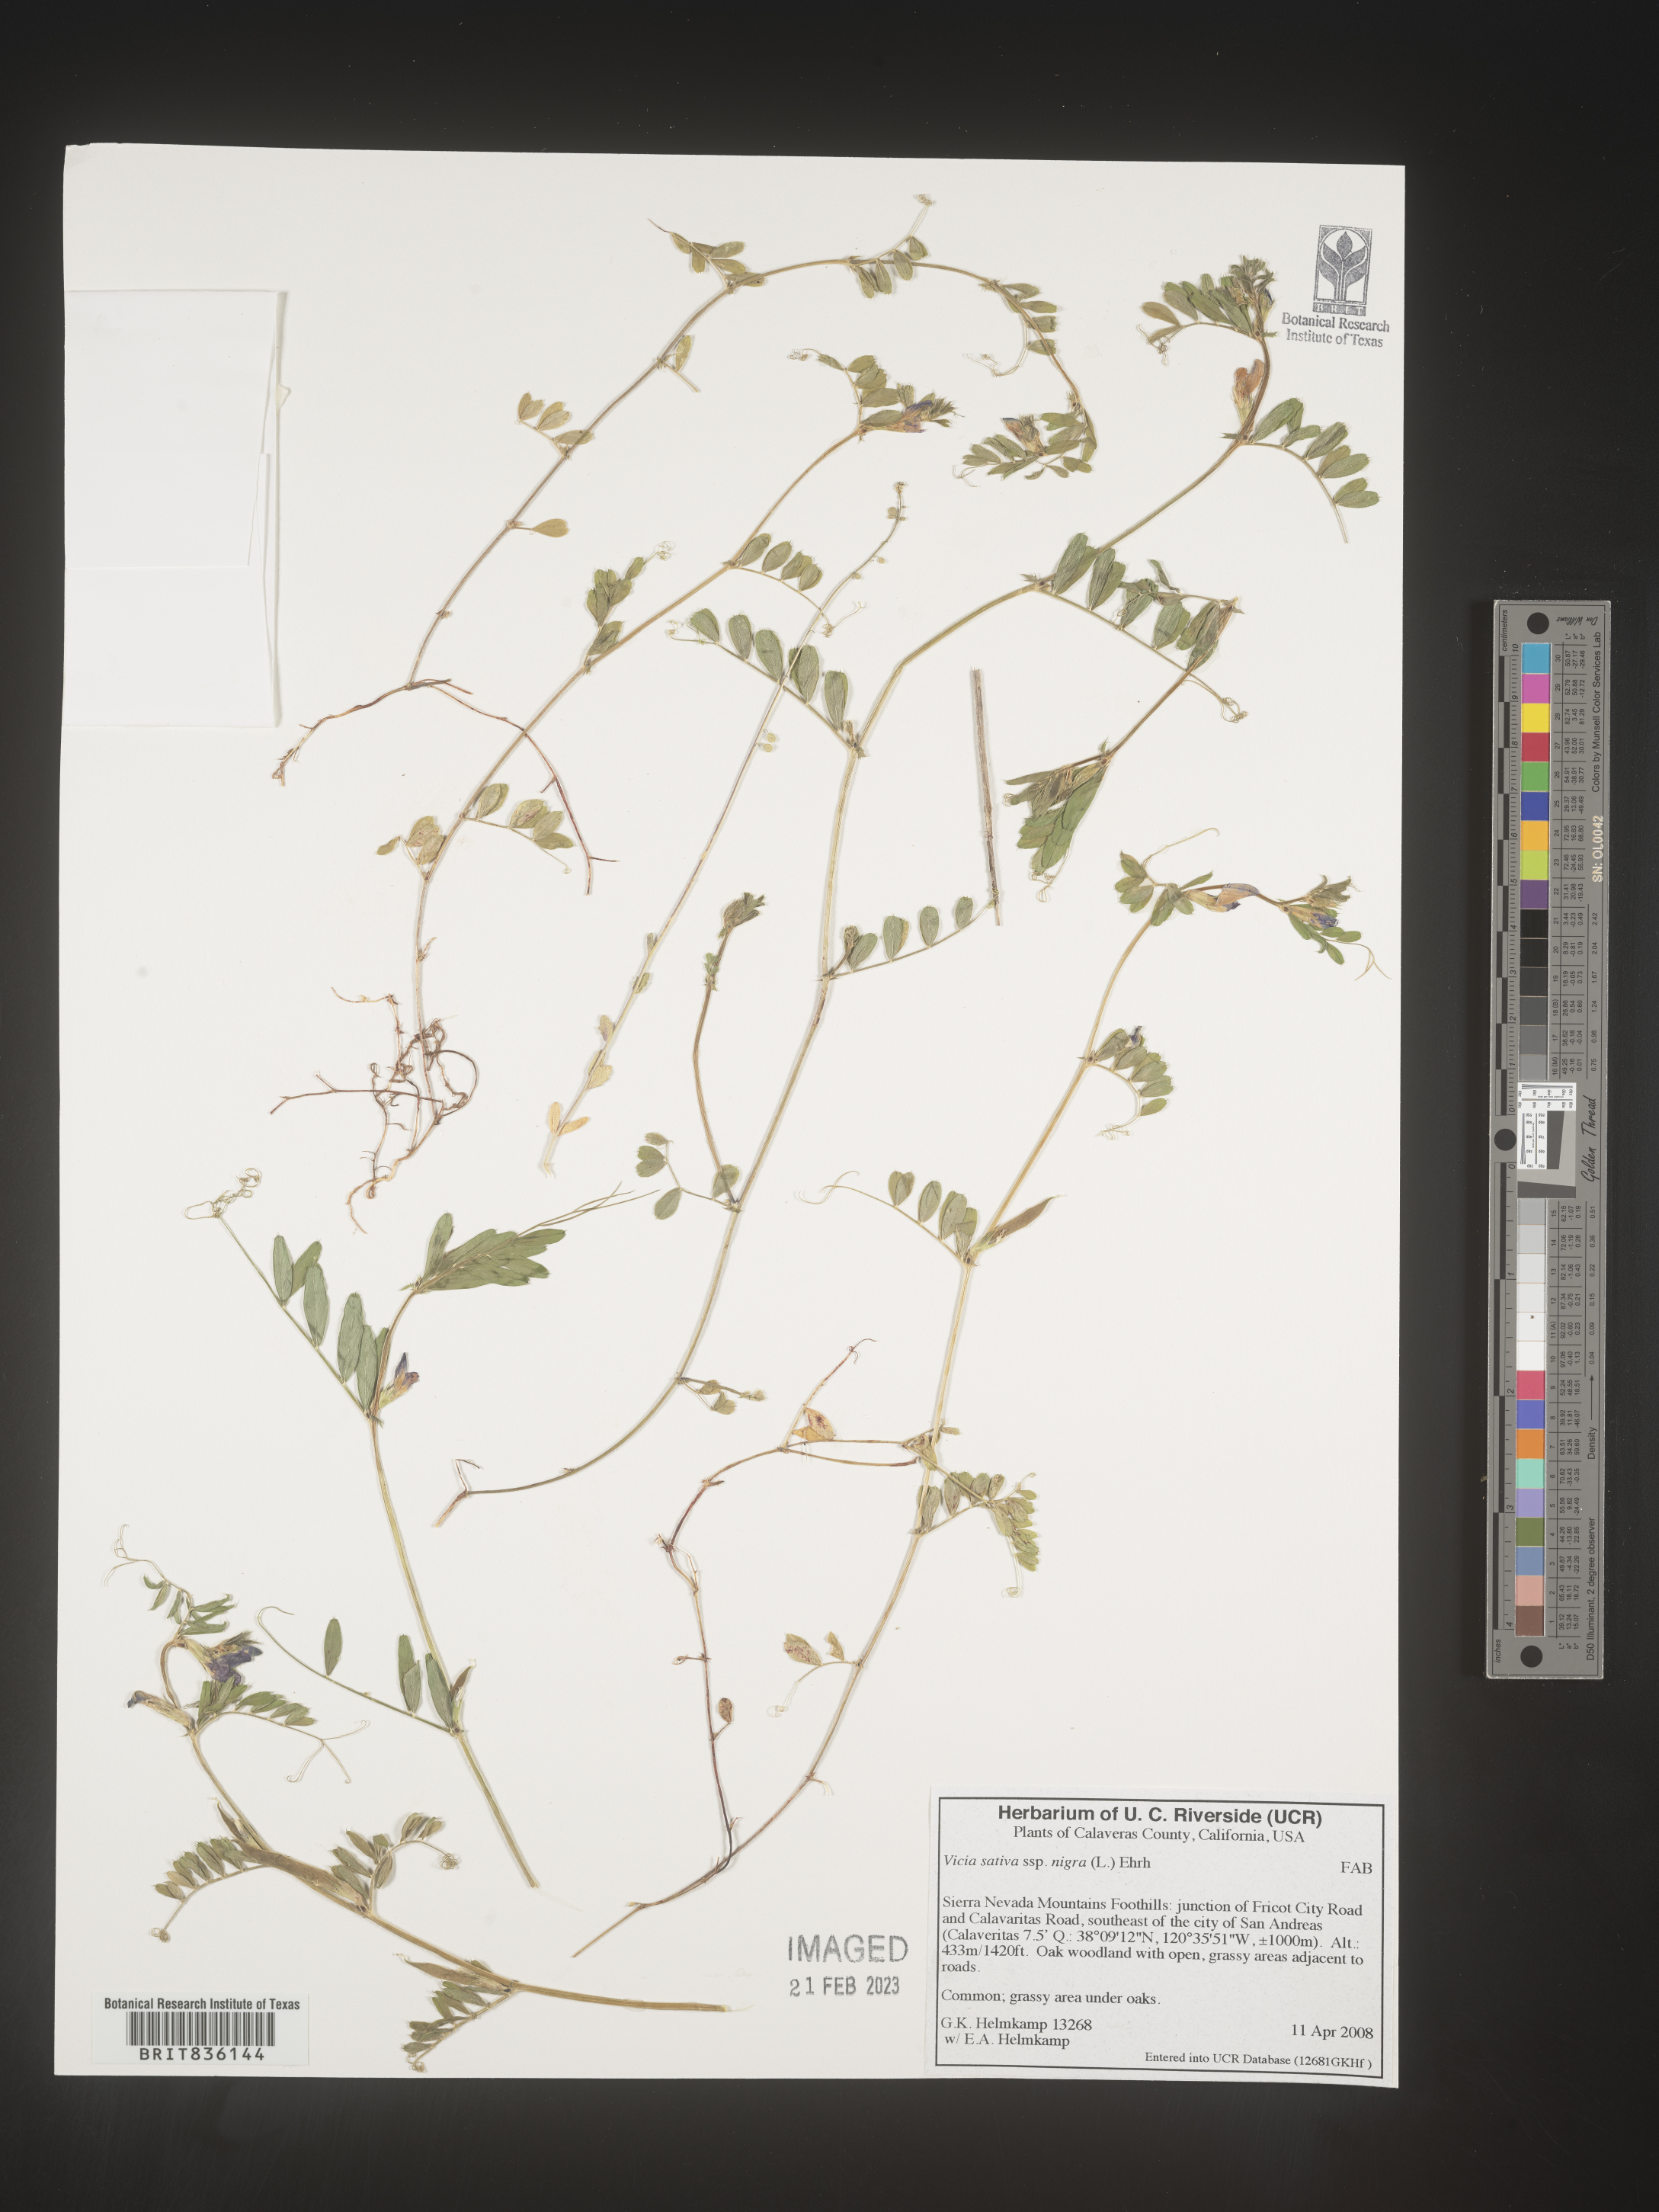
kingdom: Plantae
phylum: Tracheophyta
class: Magnoliopsida
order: Fabales
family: Fabaceae
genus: Vicia
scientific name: Vicia sativa
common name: Garden vetch
